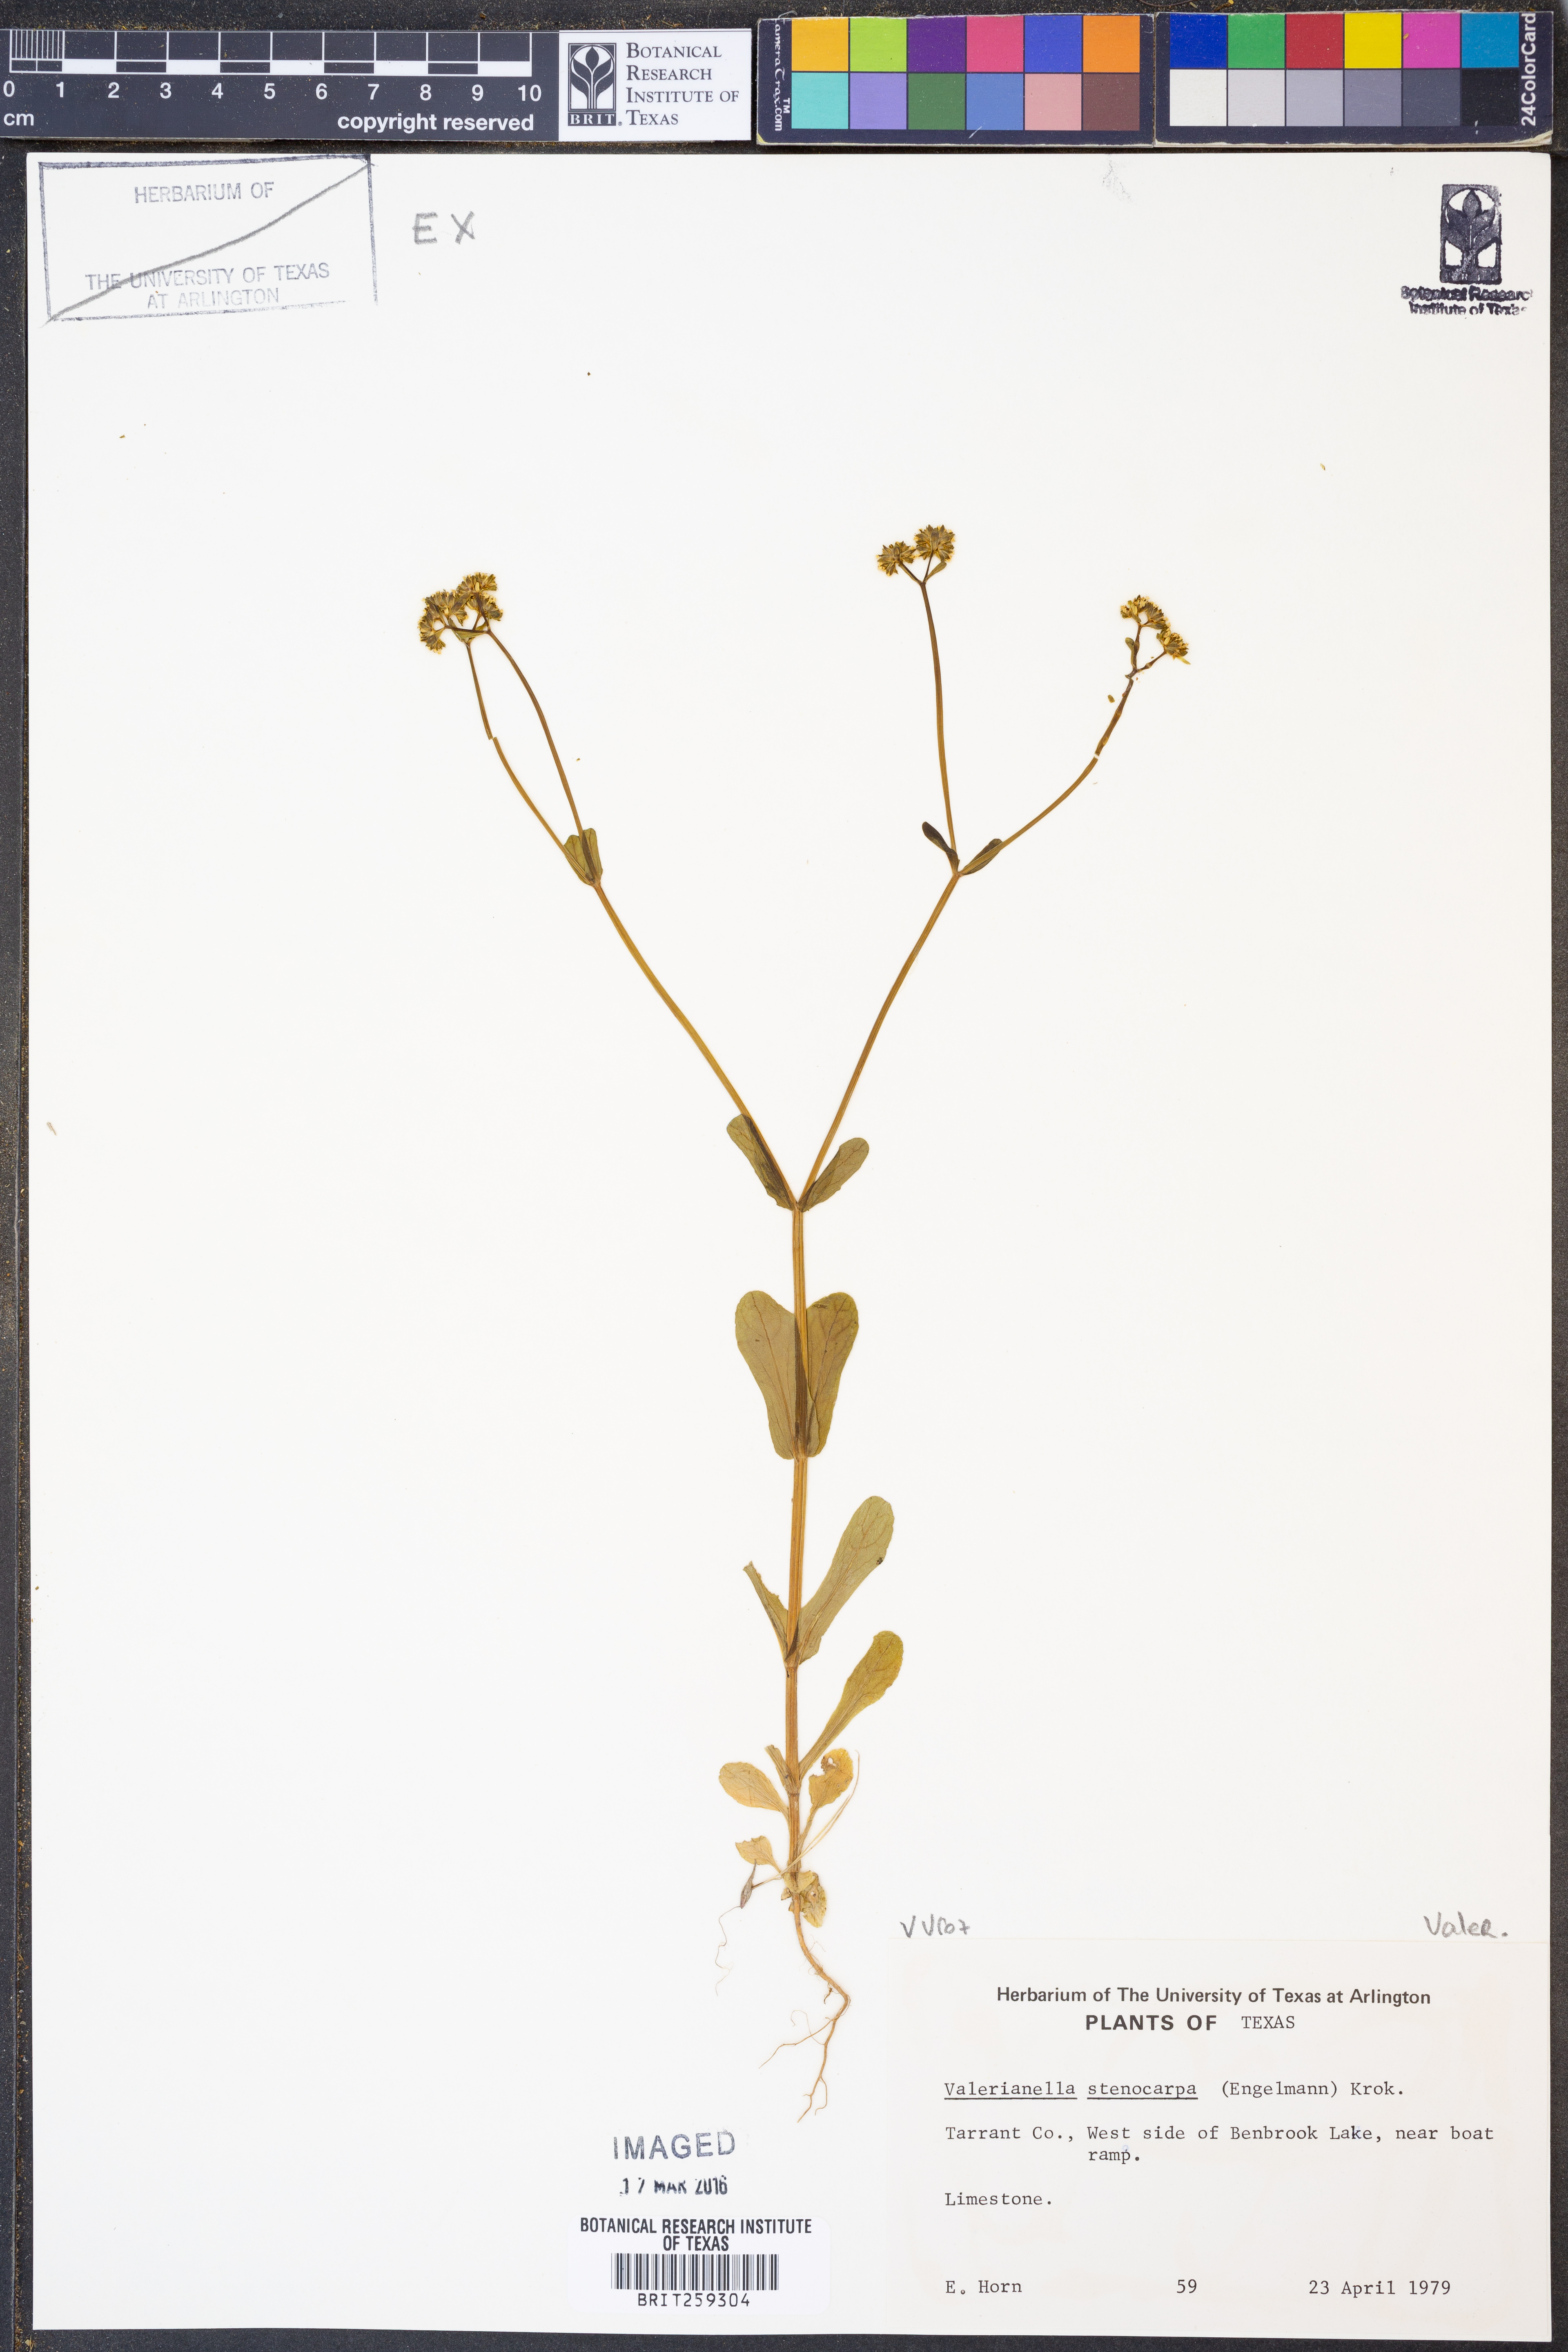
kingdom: Plantae
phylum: Tracheophyta
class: Magnoliopsida
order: Dipsacales
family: Caprifoliaceae
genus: Valerianella
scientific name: Valerianella stenocarpa
